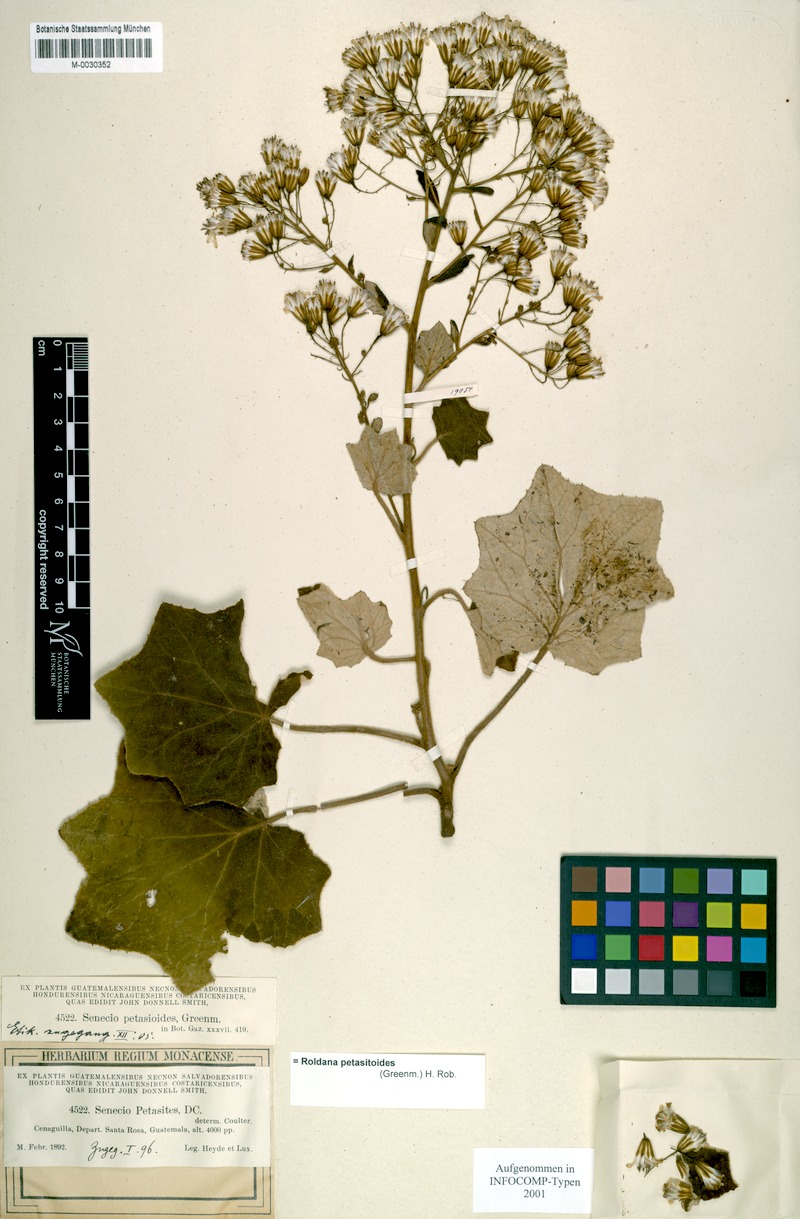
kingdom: Plantae
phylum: Tracheophyta
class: Magnoliopsida
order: Asterales
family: Asteraceae
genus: Roldana
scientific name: Roldana petasioides
